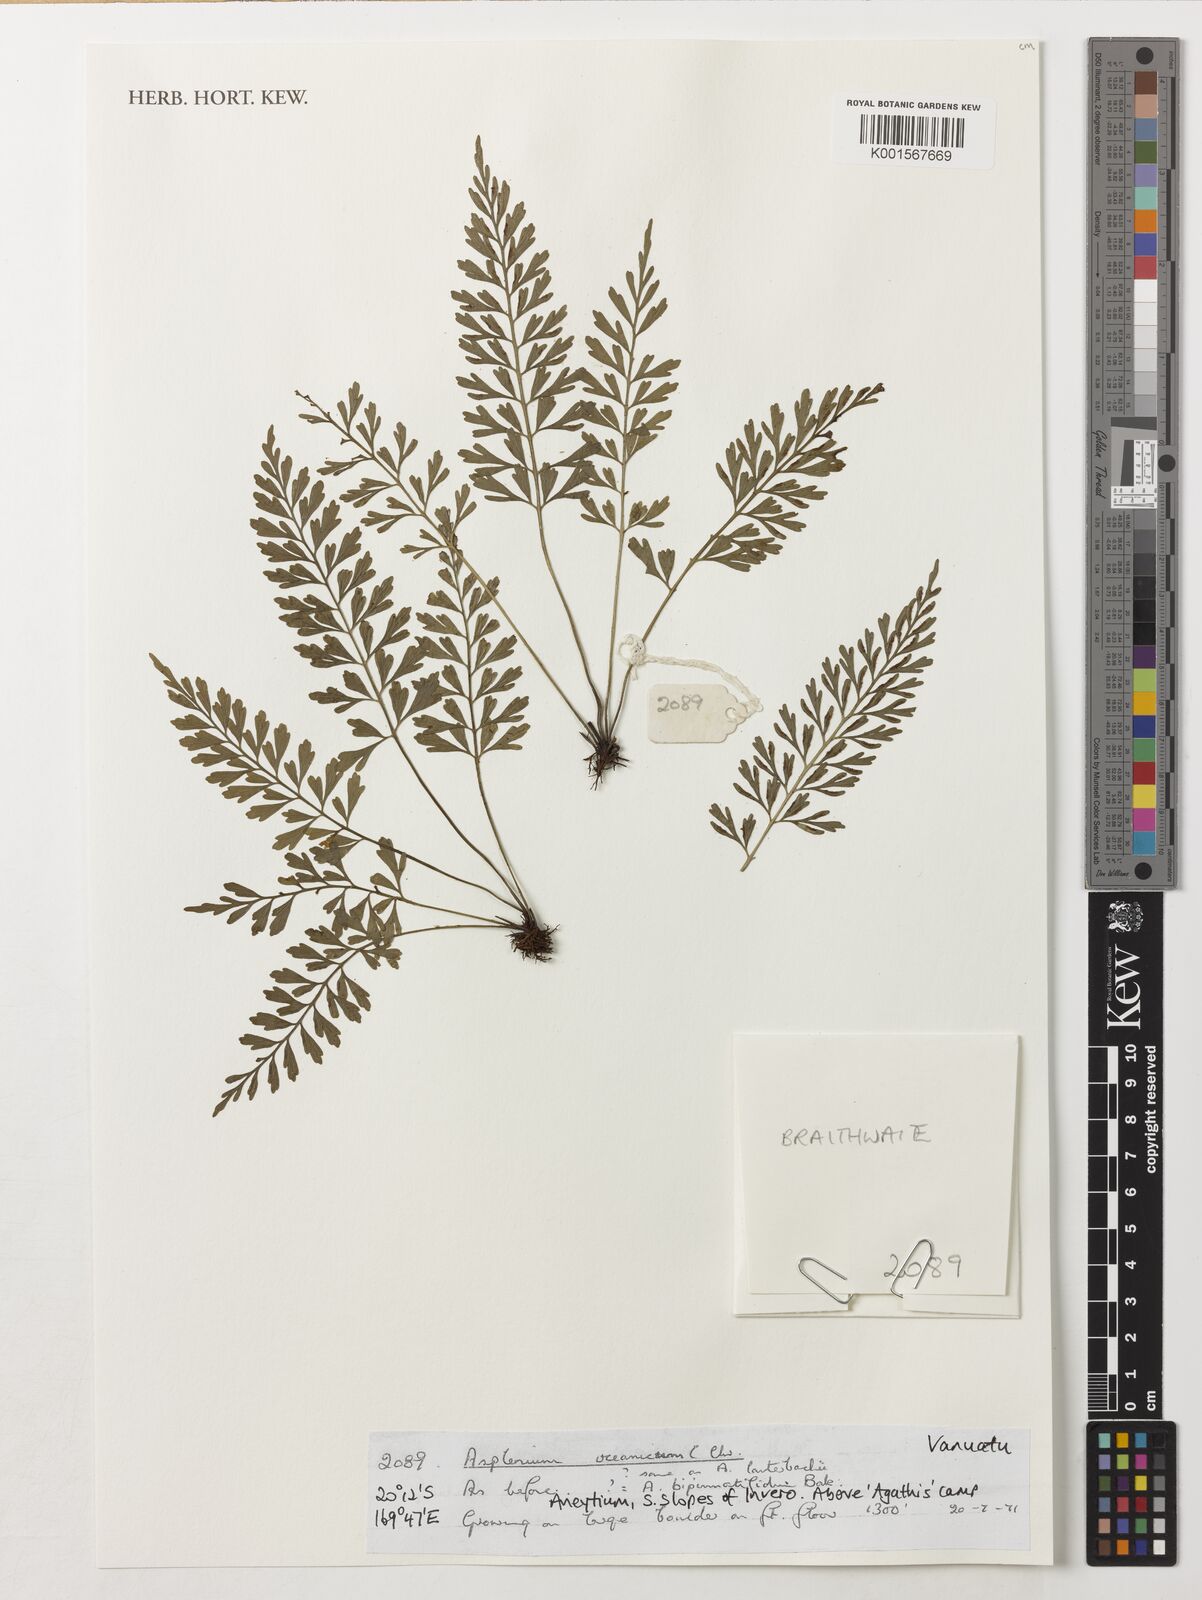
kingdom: Plantae
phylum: Tracheophyta
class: Polypodiopsida
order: Polypodiales
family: Aspleniaceae
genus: Asplenium
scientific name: Asplenium bipinnatifidum
